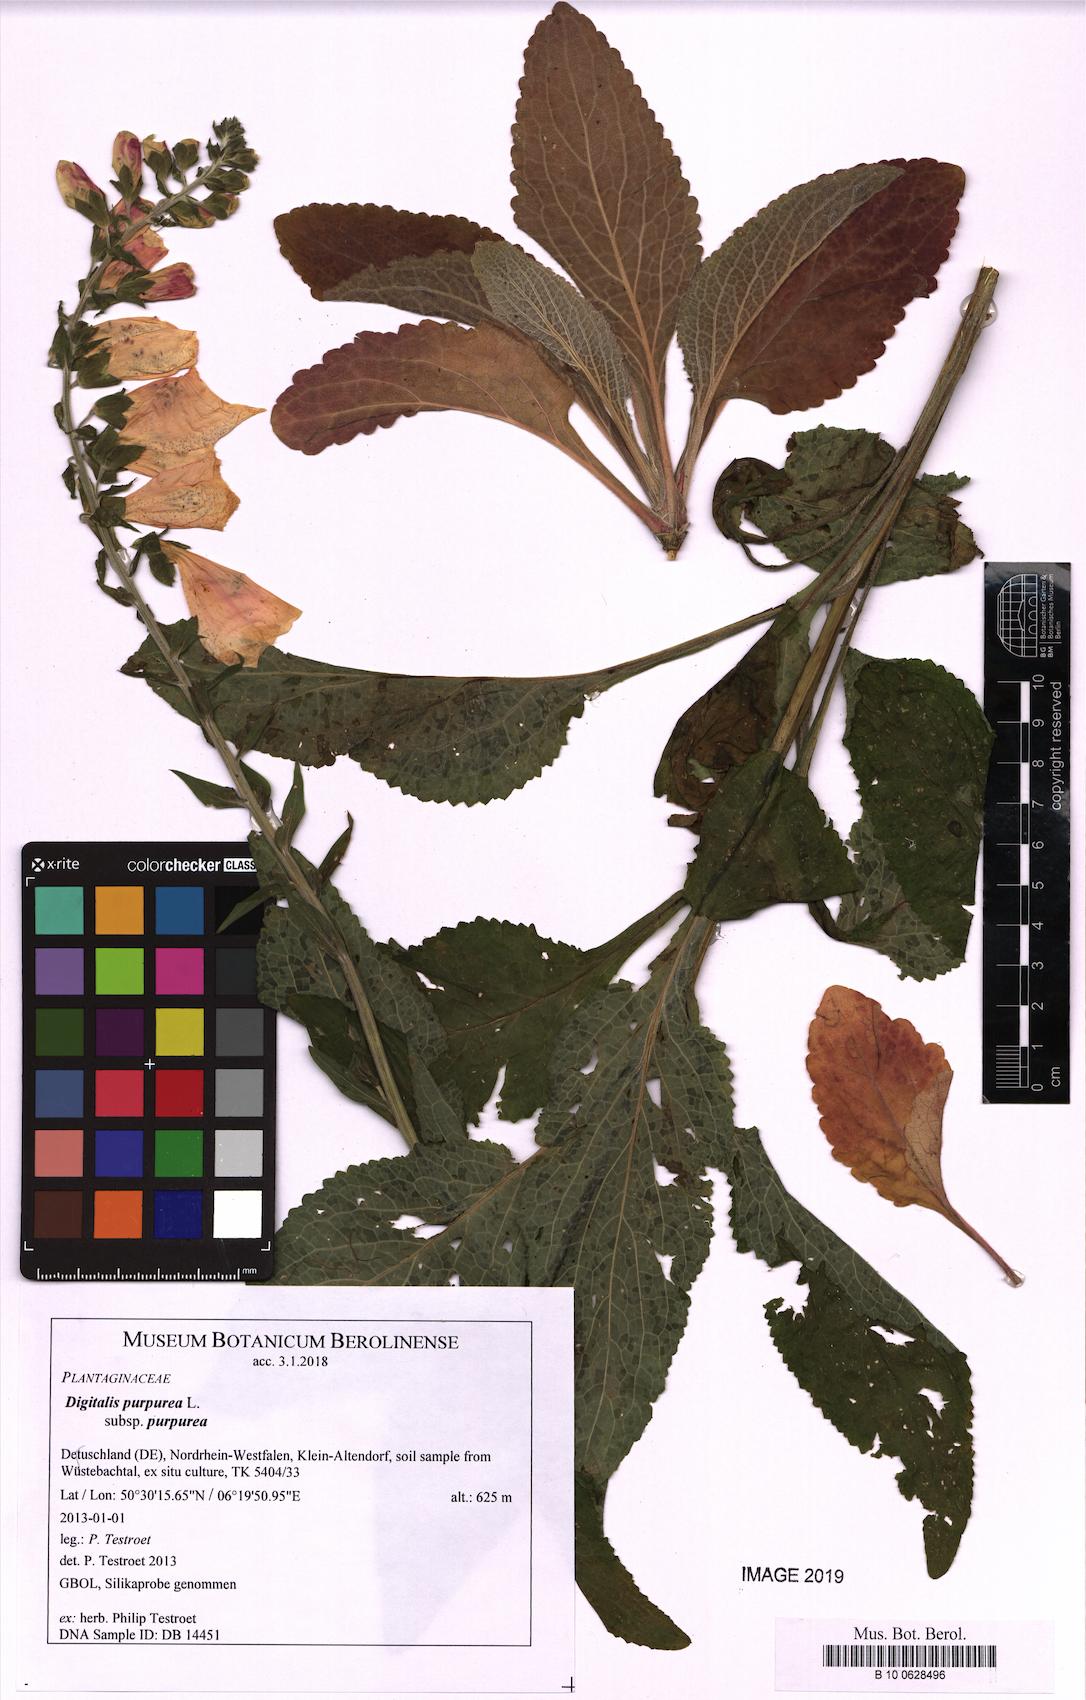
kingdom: Plantae
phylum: Tracheophyta
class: Magnoliopsida
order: Lamiales
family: Plantaginaceae
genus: Digitalis
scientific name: Digitalis purpurea
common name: Foxglove
